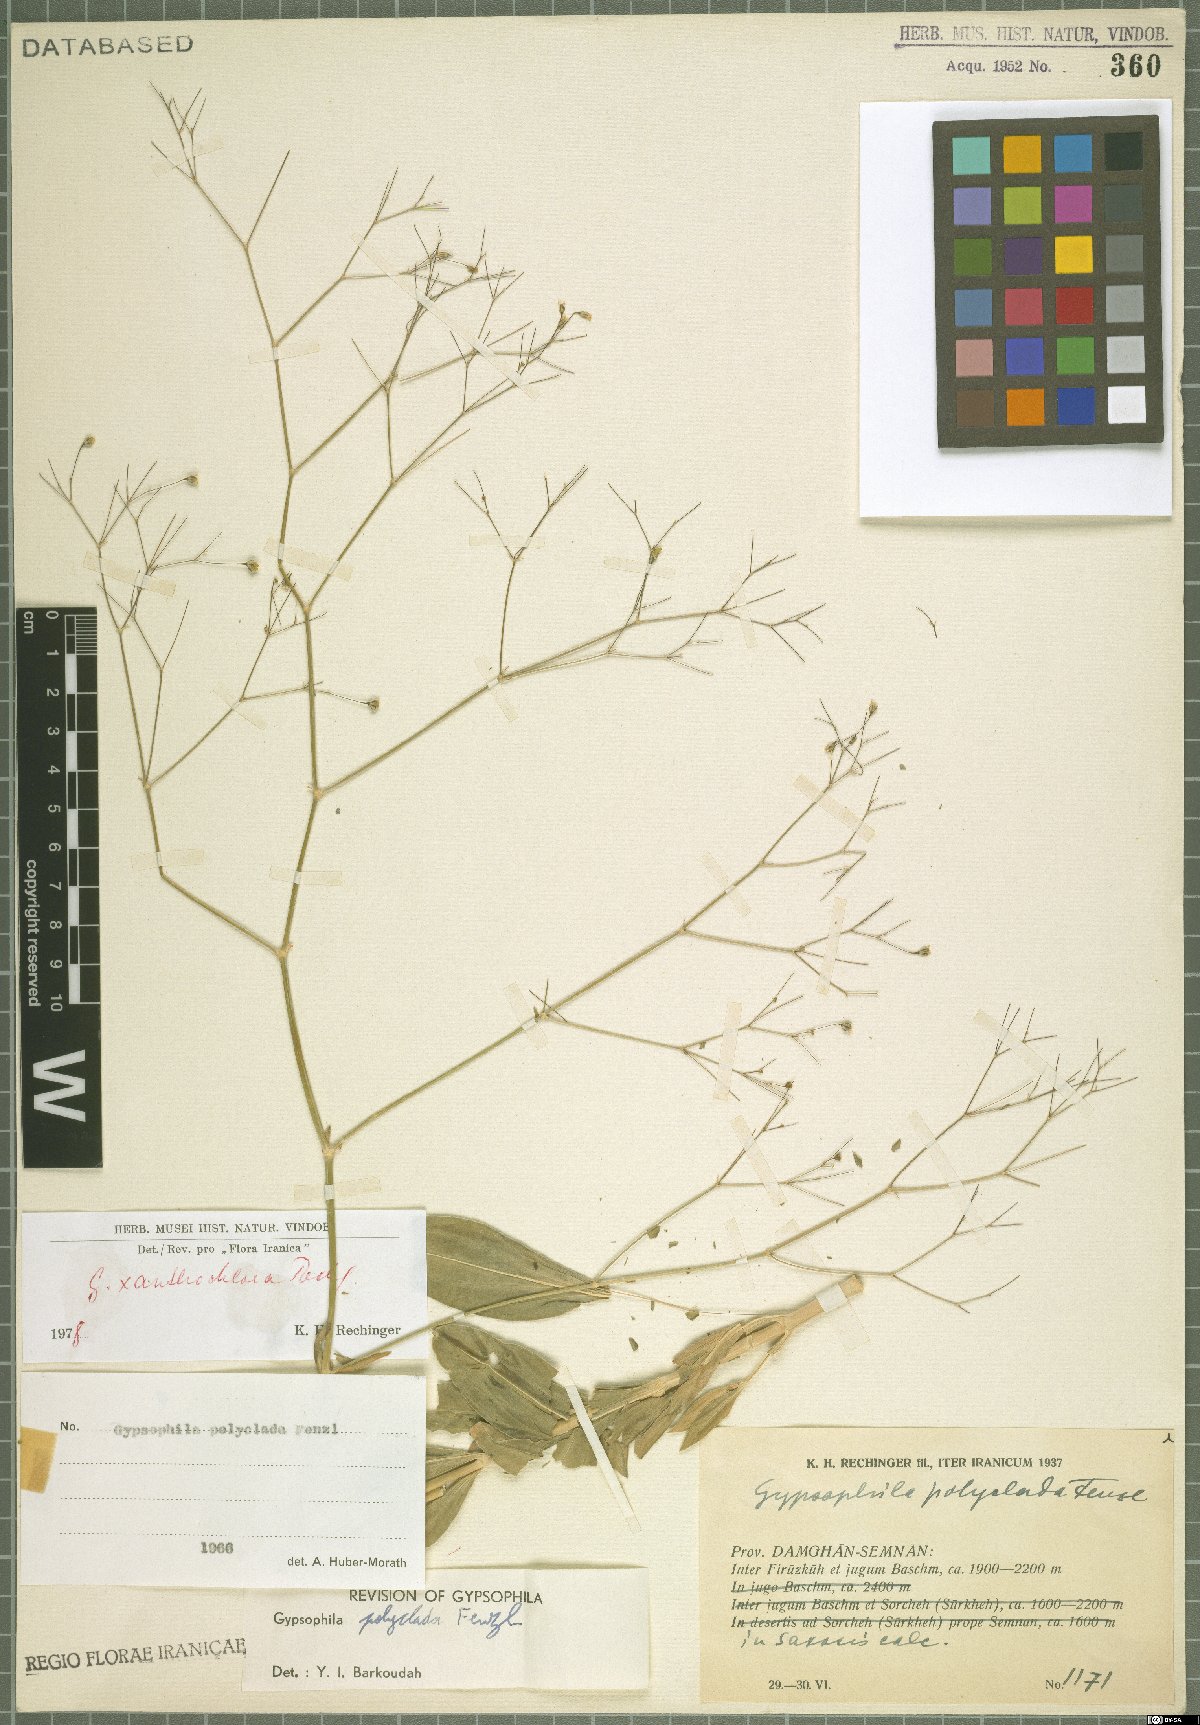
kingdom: Plantae
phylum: Tracheophyta
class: Magnoliopsida
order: Caryophyllales
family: Caryophyllaceae
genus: Gypsophila
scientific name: Gypsophila xanthochlora
